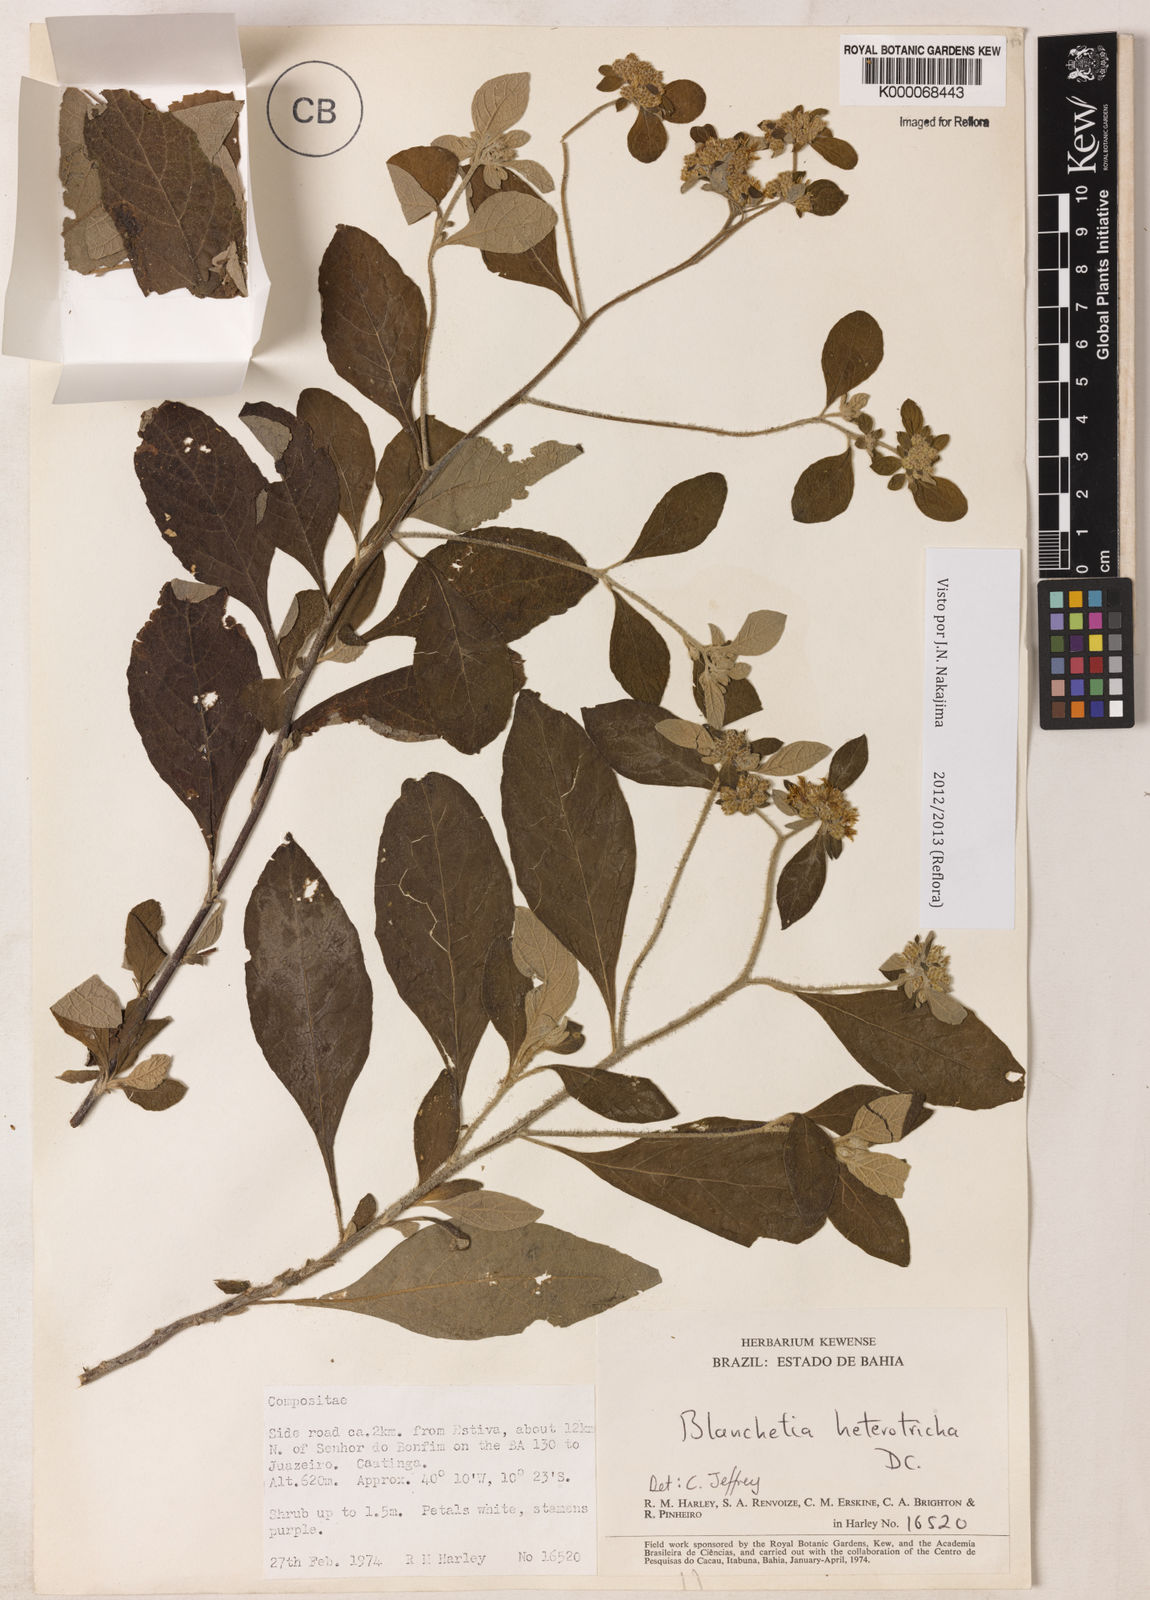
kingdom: Plantae
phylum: Tracheophyta
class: Magnoliopsida
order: Asterales
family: Asteraceae
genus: Blanchetia
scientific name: Blanchetia heterotricha
